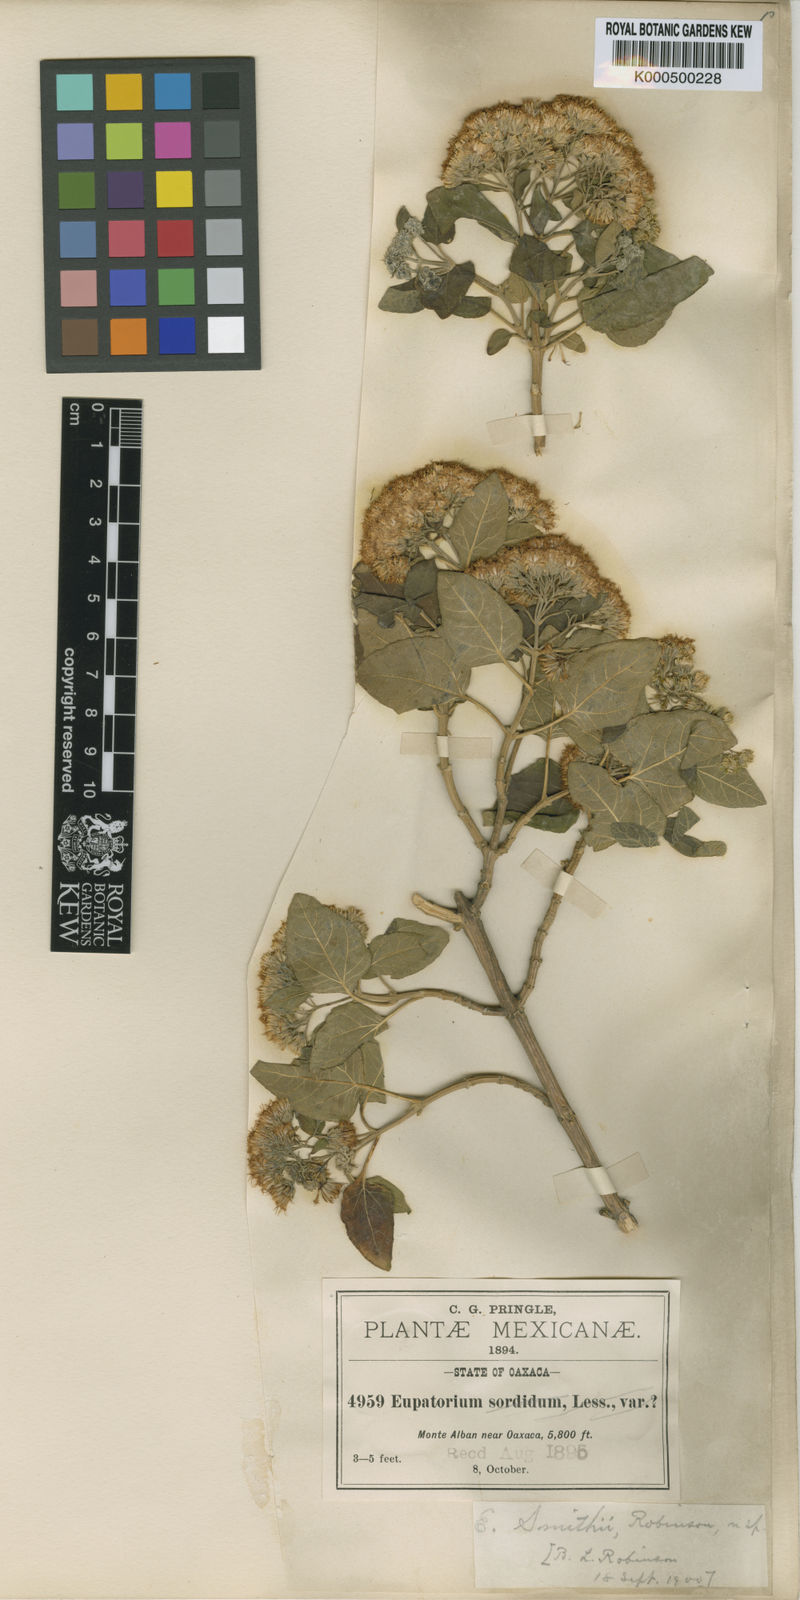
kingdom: Plantae
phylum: Tracheophyta
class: Magnoliopsida
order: Asterales
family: Asteraceae
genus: Ageratina
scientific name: Ageratina tomentella
